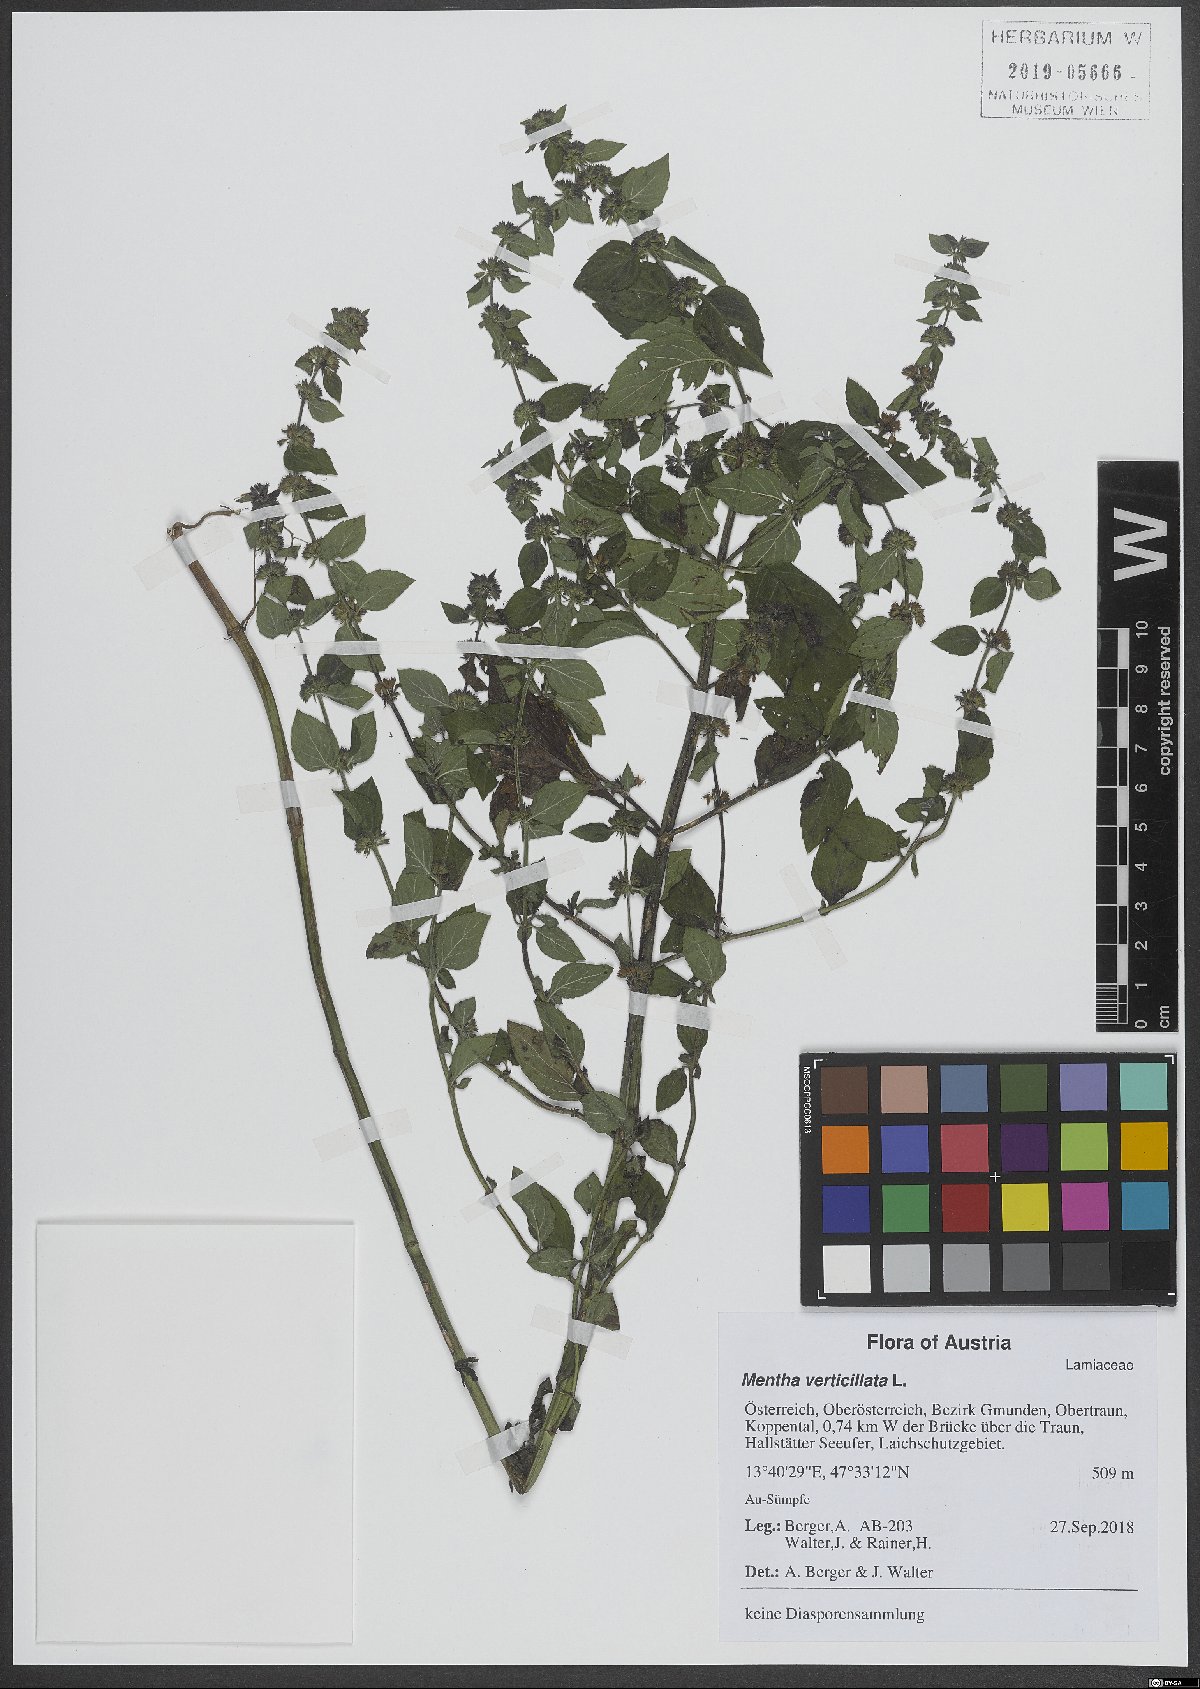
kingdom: Plantae
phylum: Tracheophyta
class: Magnoliopsida
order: Lamiales
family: Lamiaceae
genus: Mentha
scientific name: Mentha verticillata
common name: Mint
